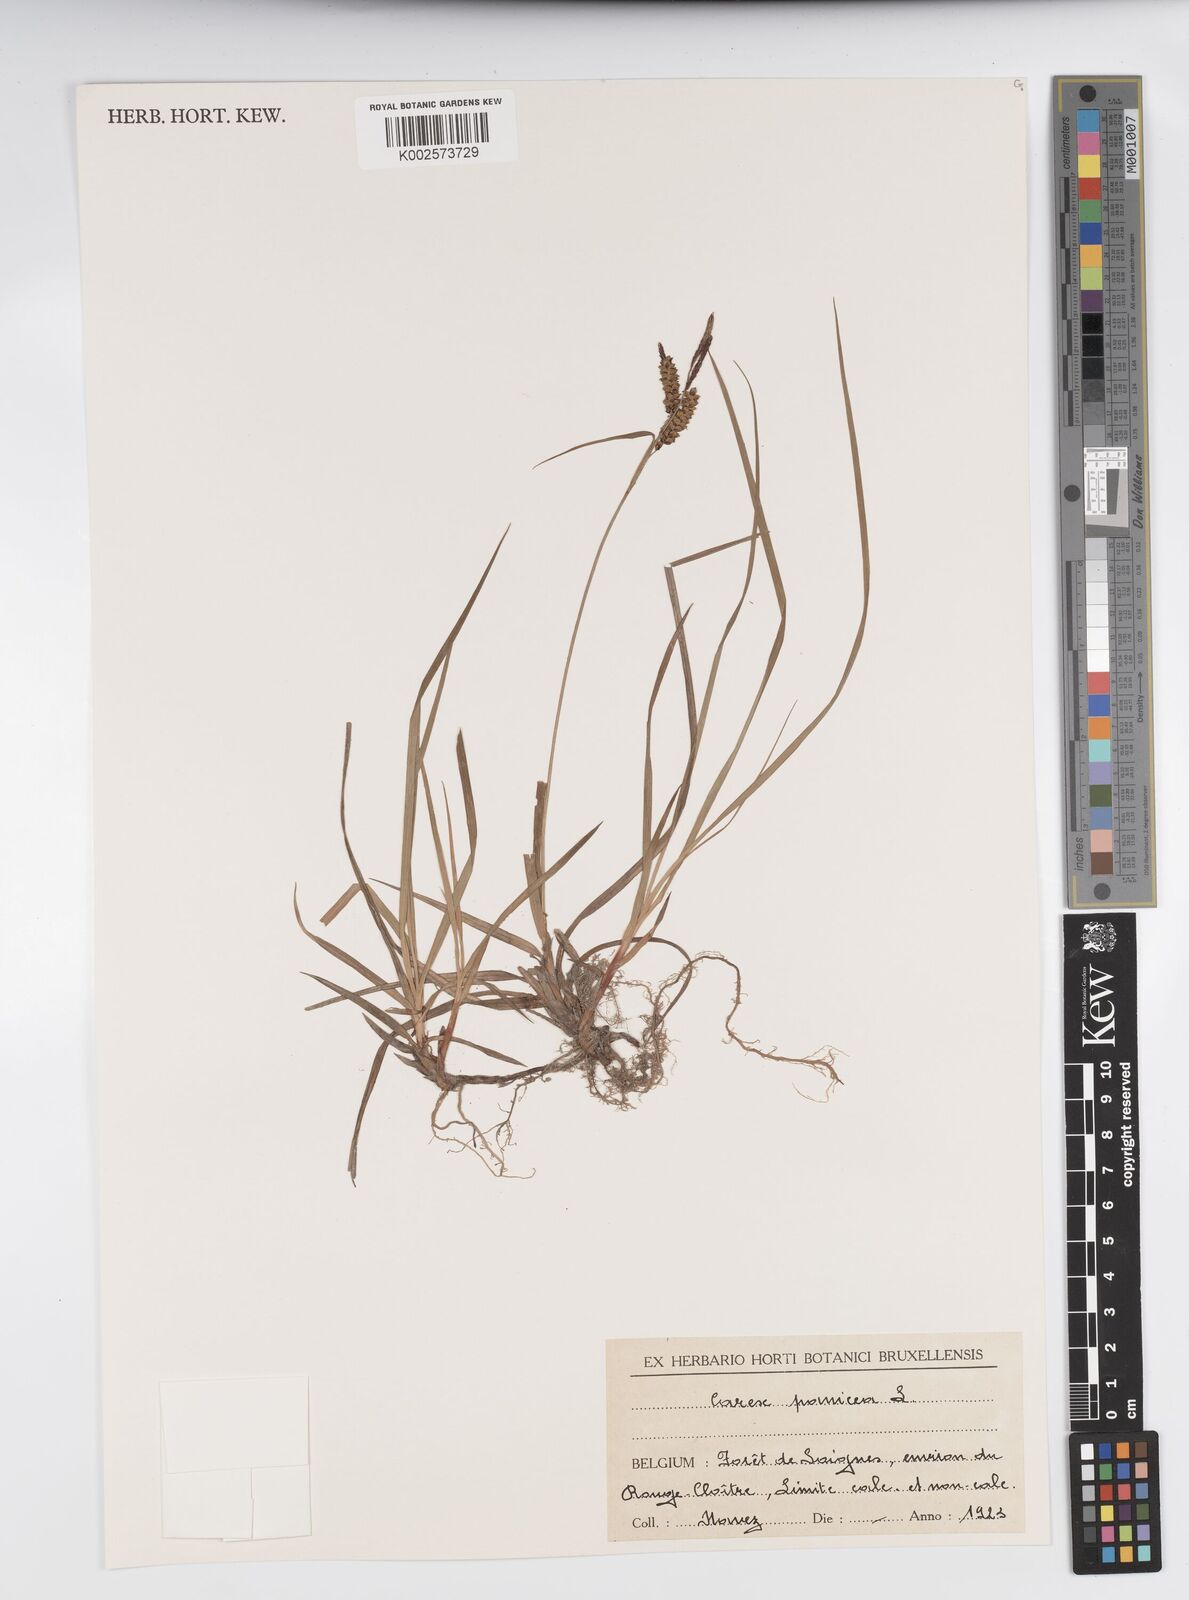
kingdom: Plantae
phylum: Tracheophyta
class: Liliopsida
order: Poales
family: Cyperaceae
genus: Carex
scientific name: Carex panicea
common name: Carnation sedge
